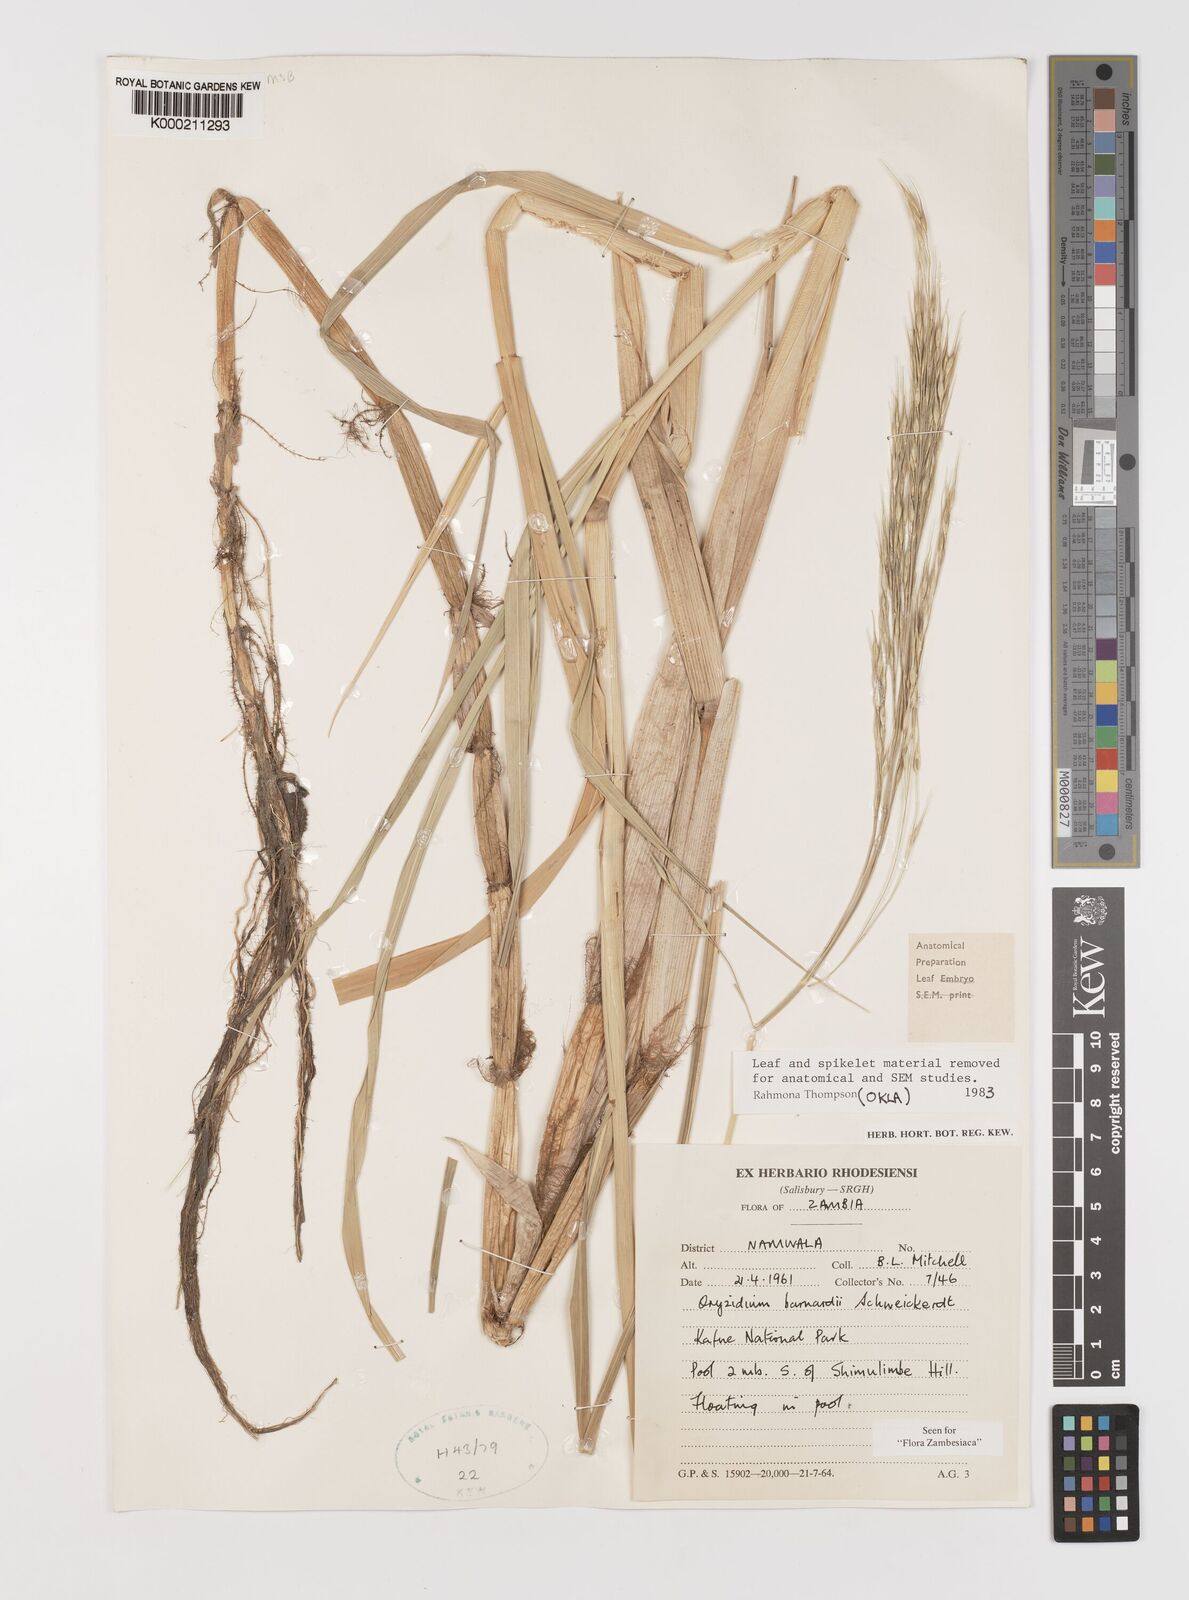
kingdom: Plantae
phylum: Tracheophyta
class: Liliopsida
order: Poales
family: Poaceae
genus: Oryzidium
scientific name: Oryzidium barnardii
